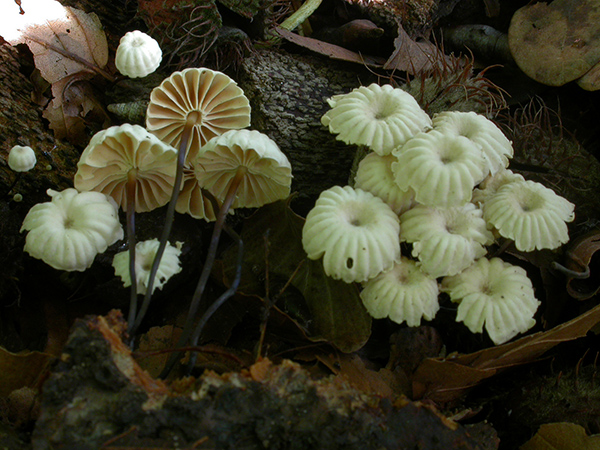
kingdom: Fungi
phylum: Basidiomycota
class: Agaricomycetes
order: Agaricales
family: Marasmiaceae
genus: Marasmius
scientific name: Marasmius rotula
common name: hjul-bruskhat
